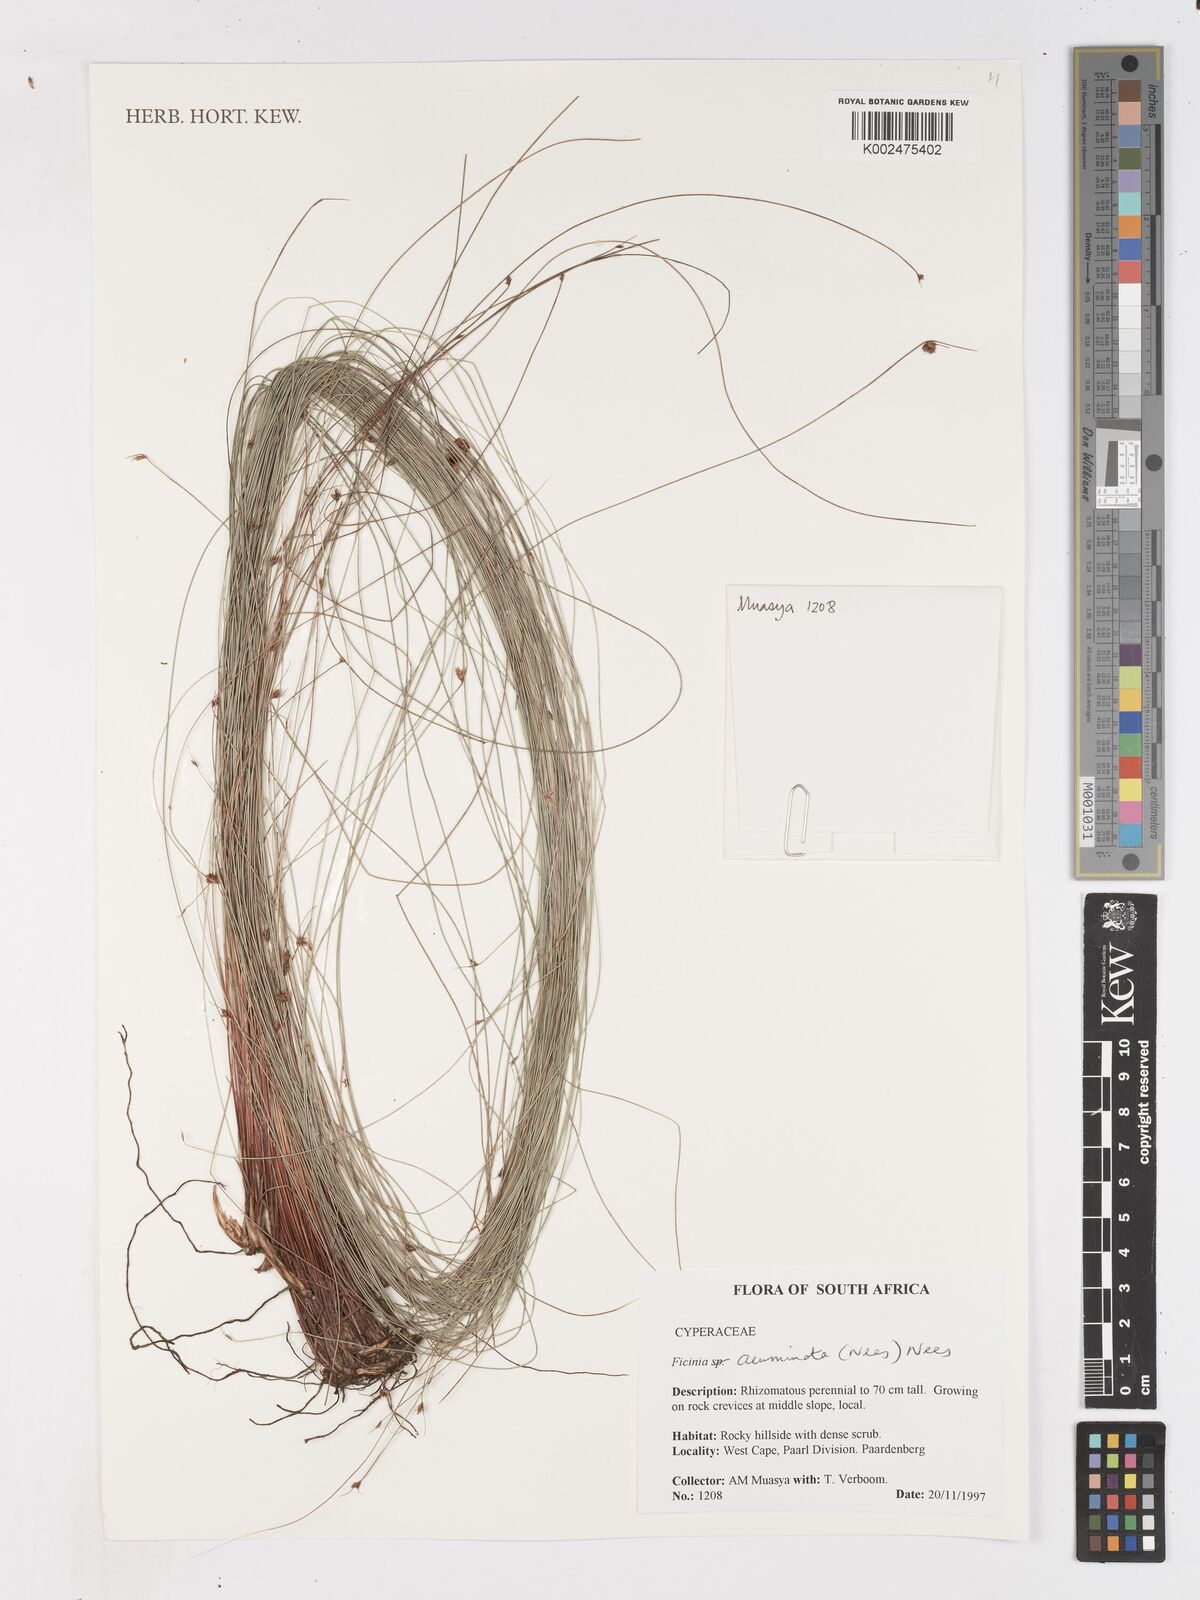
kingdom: Plantae
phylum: Tracheophyta
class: Liliopsida
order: Poales
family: Cyperaceae
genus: Ficinia
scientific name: Ficinia acuminata
